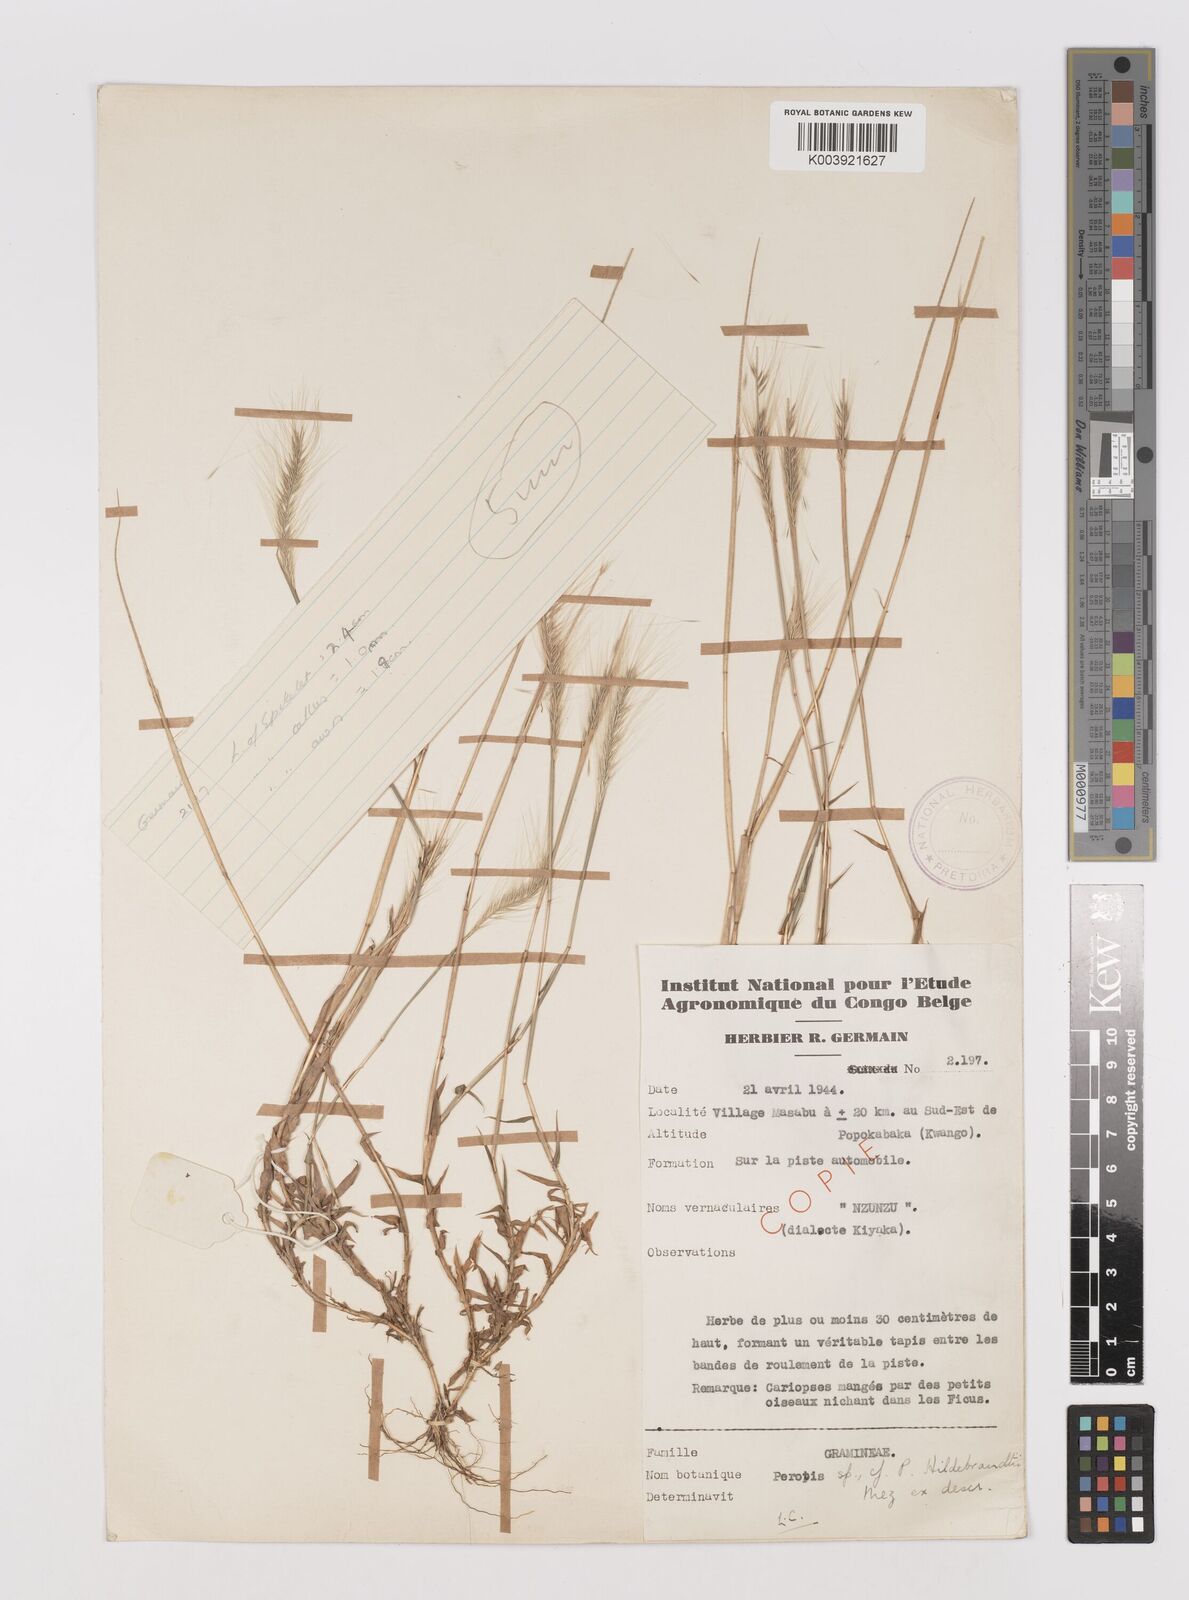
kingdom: Plantae
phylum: Tracheophyta
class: Liliopsida
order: Poales
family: Poaceae
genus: Perotis
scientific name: Perotis vaginata
